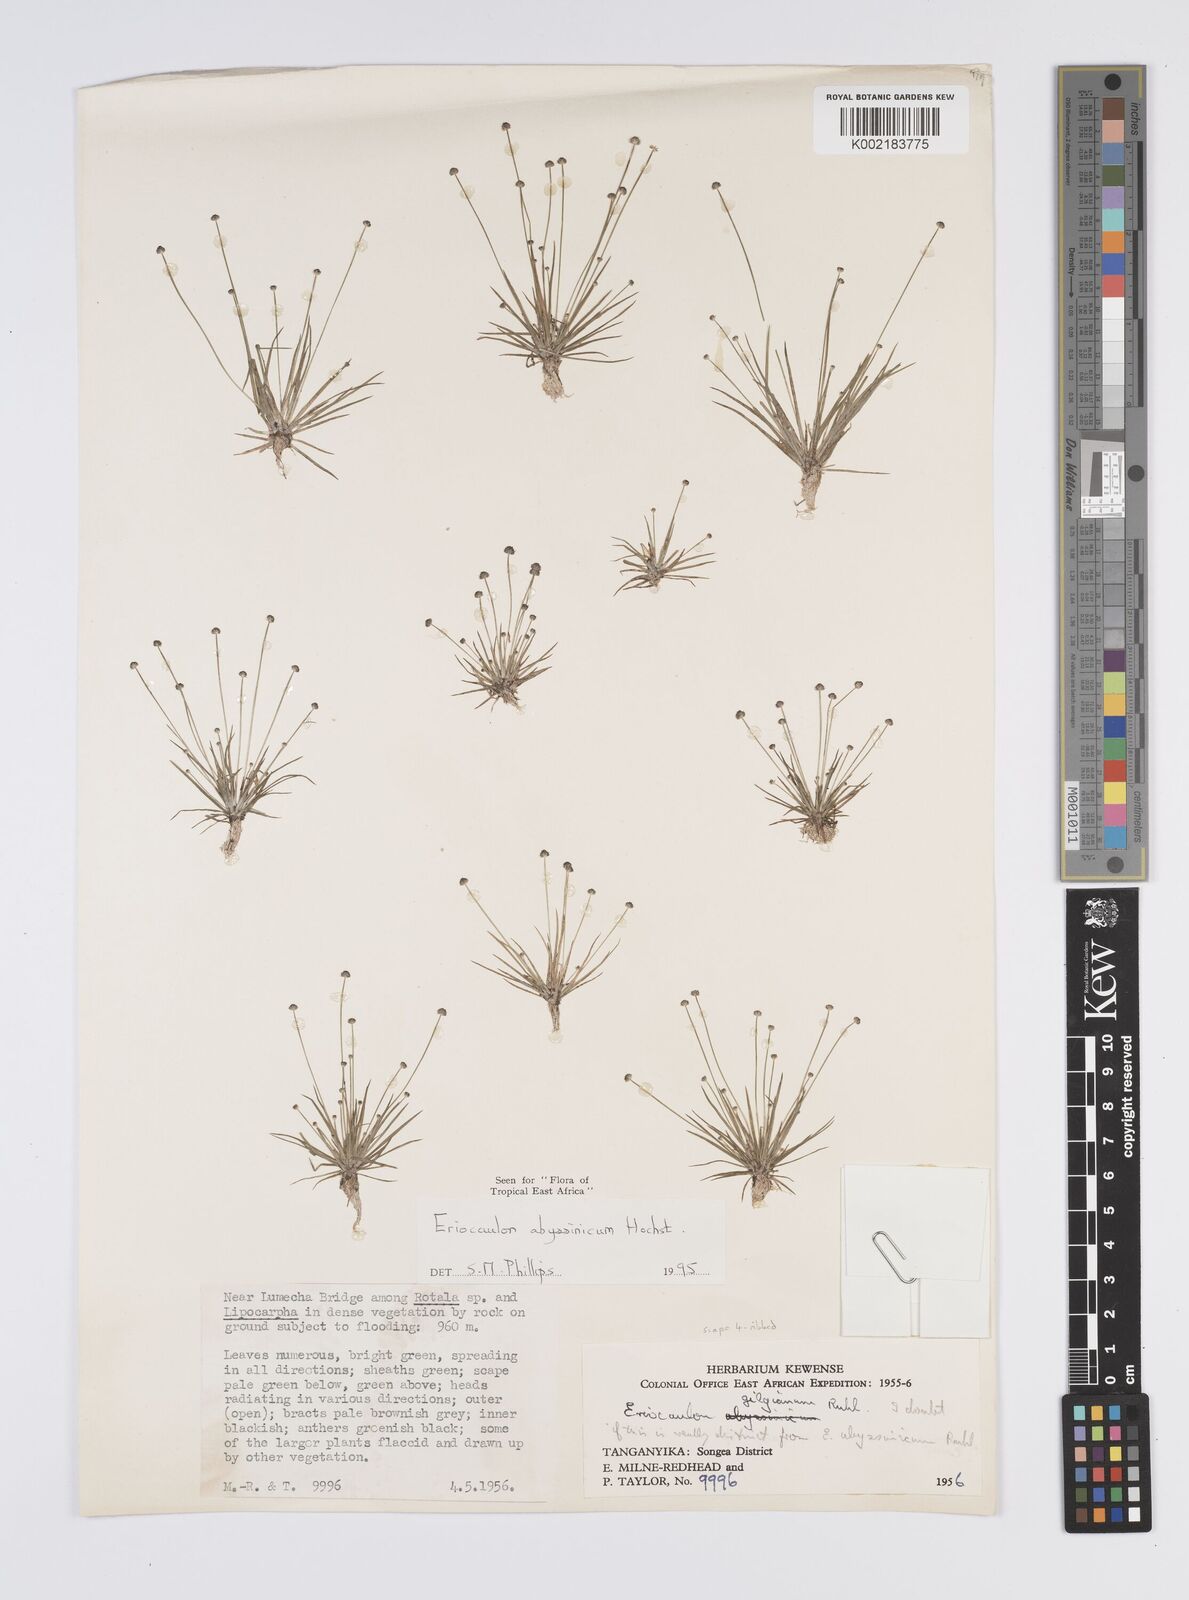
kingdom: Plantae
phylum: Tracheophyta
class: Liliopsida
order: Poales
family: Eriocaulaceae
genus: Eriocaulon
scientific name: Eriocaulon abyssinicum
